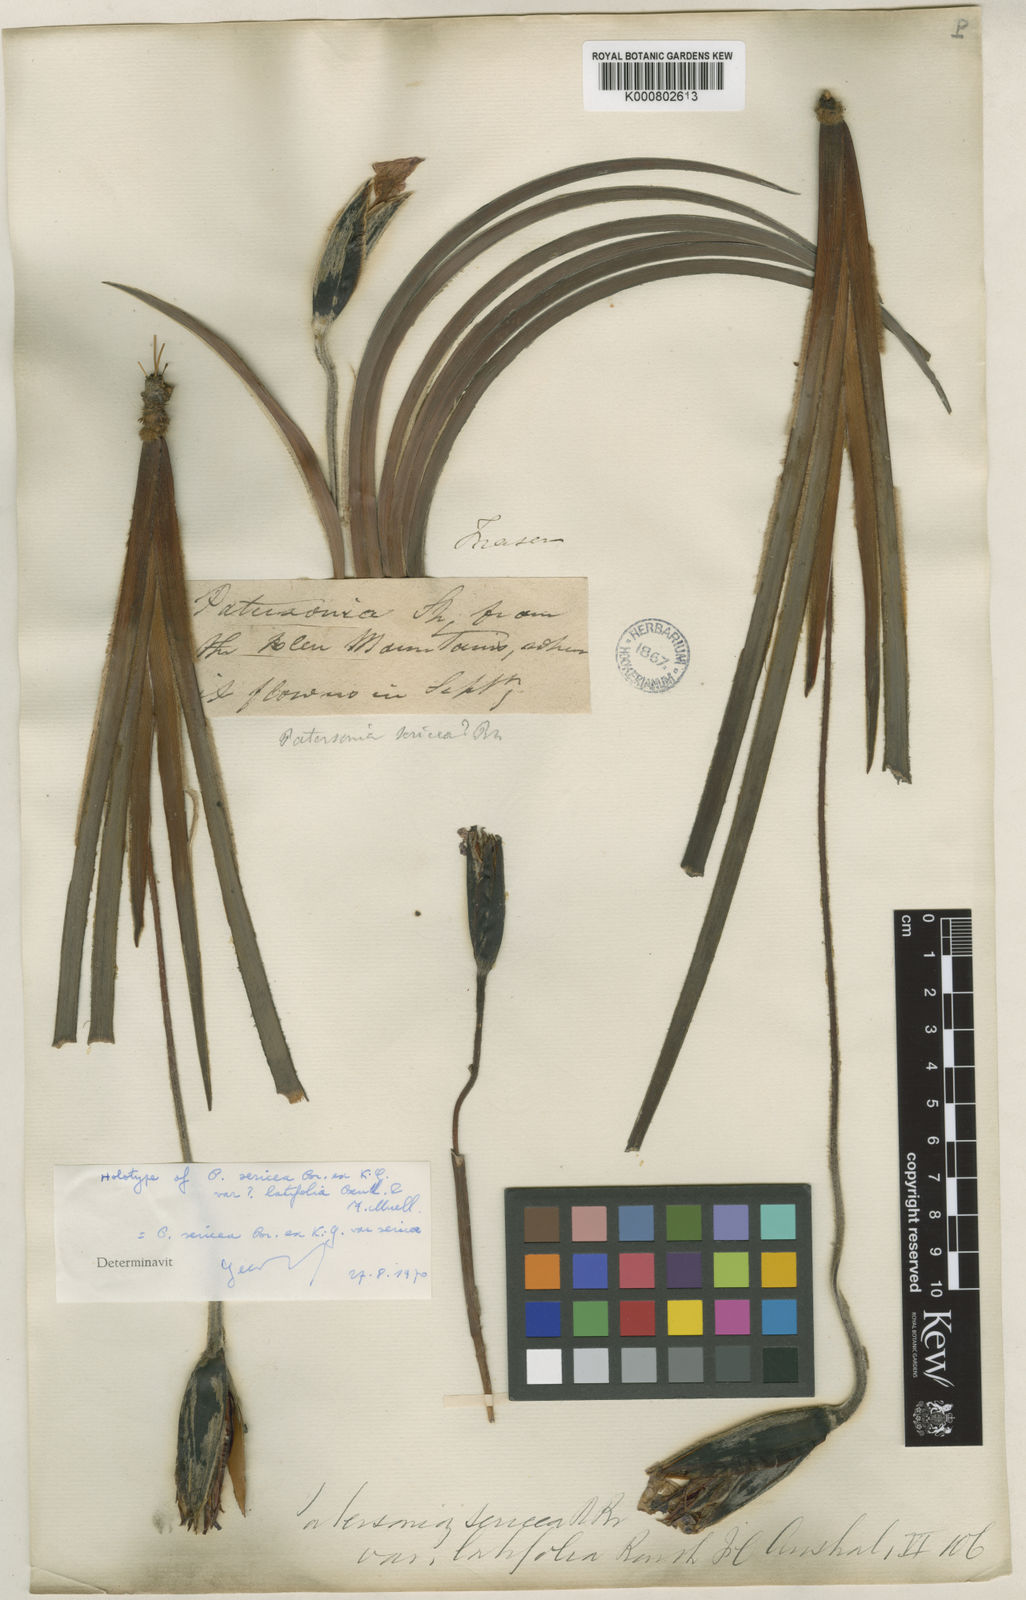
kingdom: Plantae
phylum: Tracheophyta
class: Liliopsida
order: Asparagales
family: Iridaceae
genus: Patersonia
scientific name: Patersonia sericea
